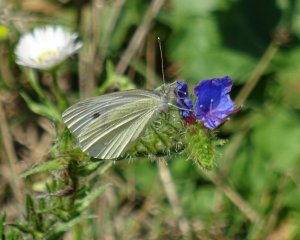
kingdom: Animalia
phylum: Arthropoda
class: Insecta
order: Lepidoptera
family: Pieridae
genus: Pieris
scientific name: Pieris rapae
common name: Cabbage White
